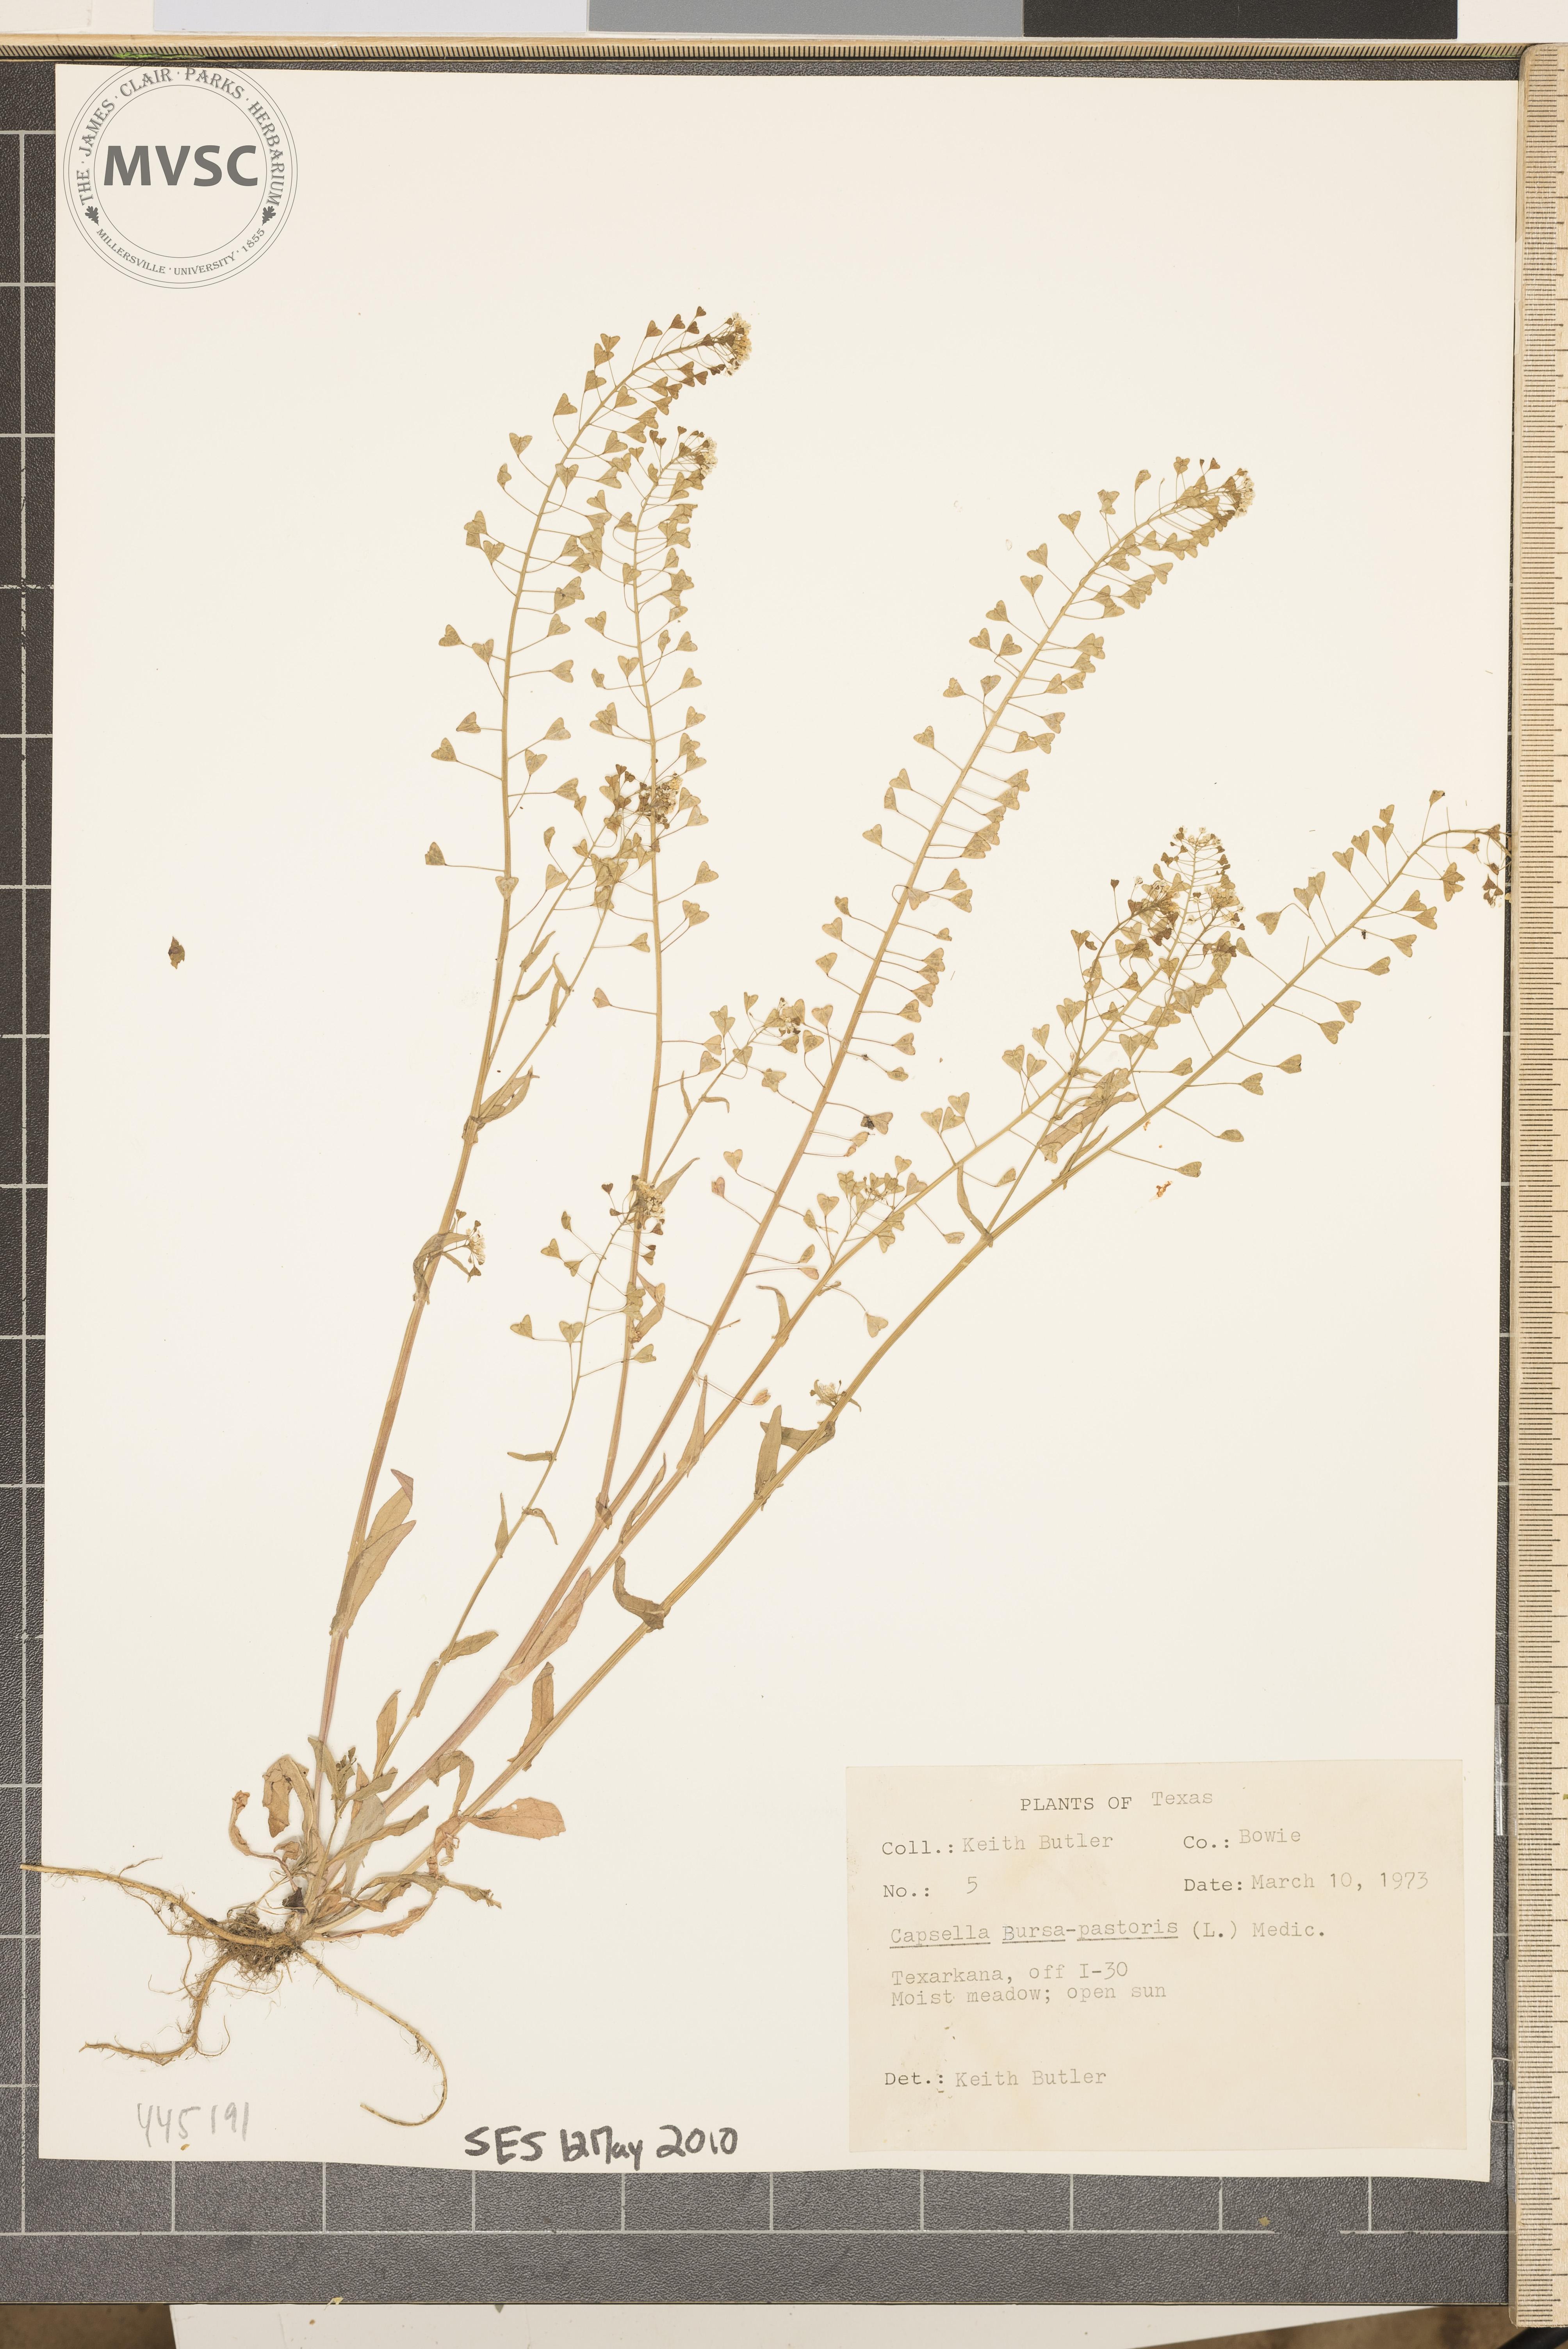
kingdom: Plantae
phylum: Tracheophyta
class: Magnoliopsida
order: Brassicales
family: Brassicaceae
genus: Capsella
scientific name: Capsella bursa-pastoris
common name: Shepherd's purse
